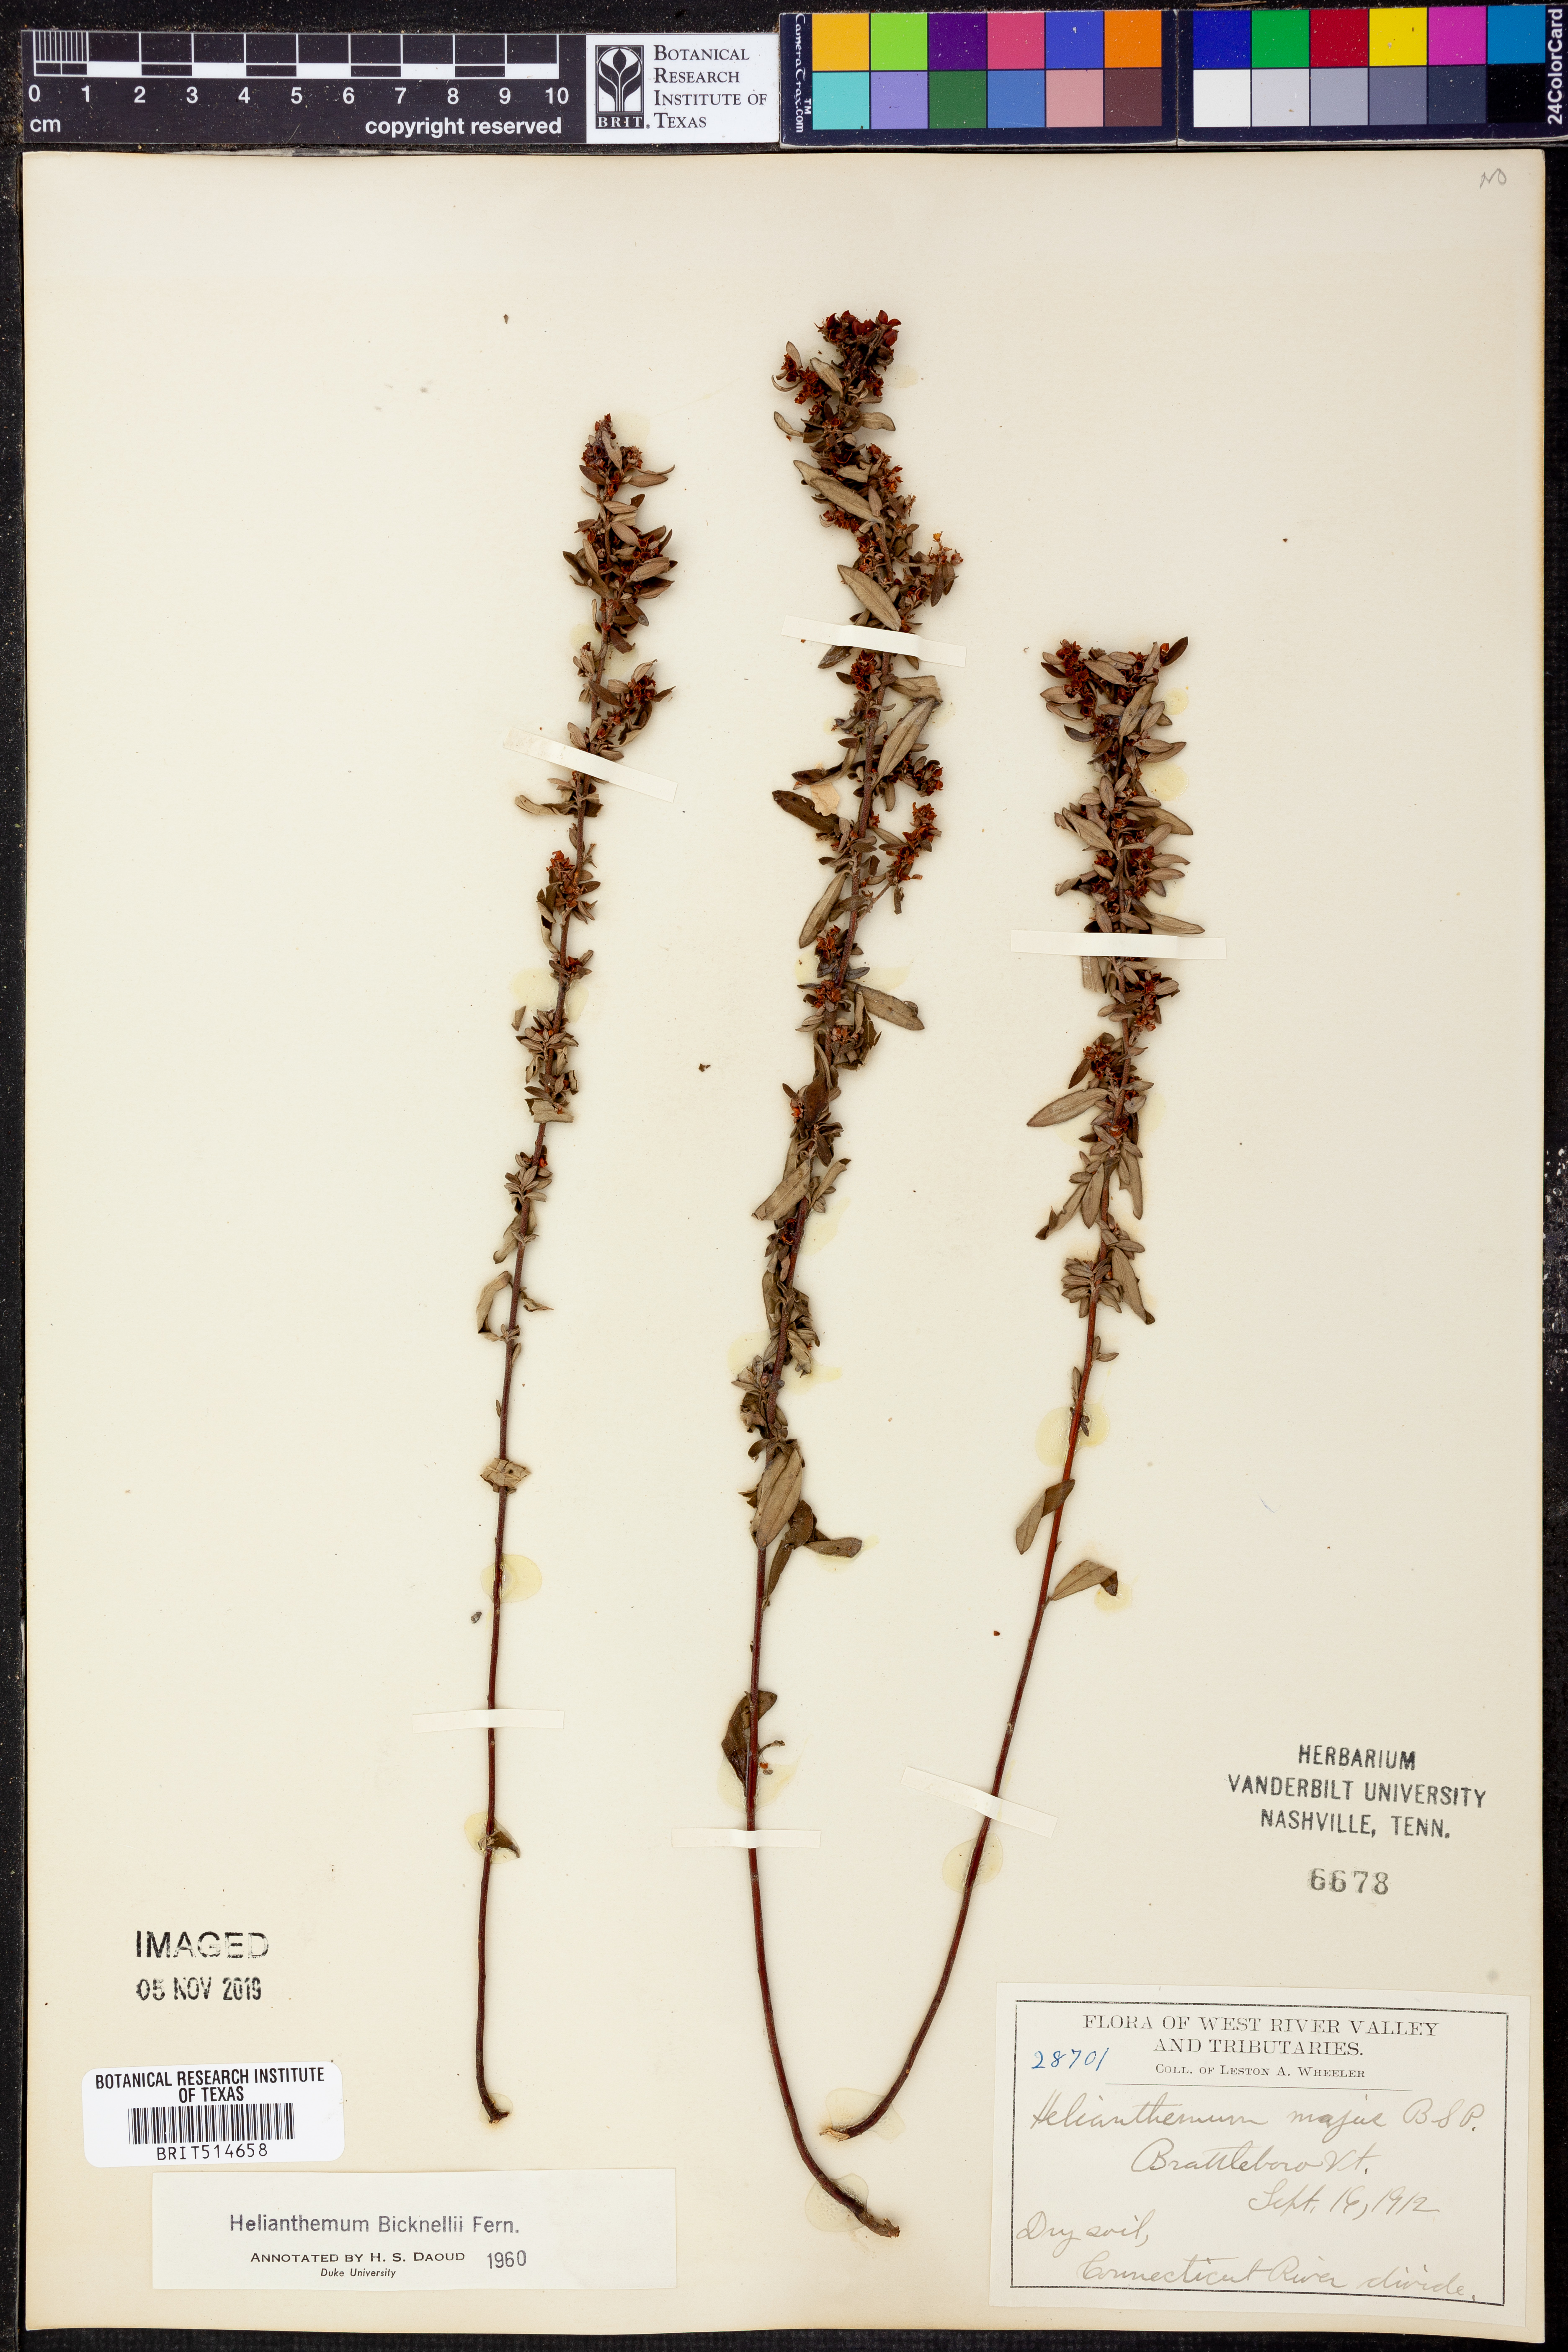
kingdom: Plantae
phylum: Tracheophyta
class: Magnoliopsida
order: Malvales
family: Cistaceae
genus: Crocanthemum
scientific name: Crocanthemum bicknellii
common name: Hoary frostweed
